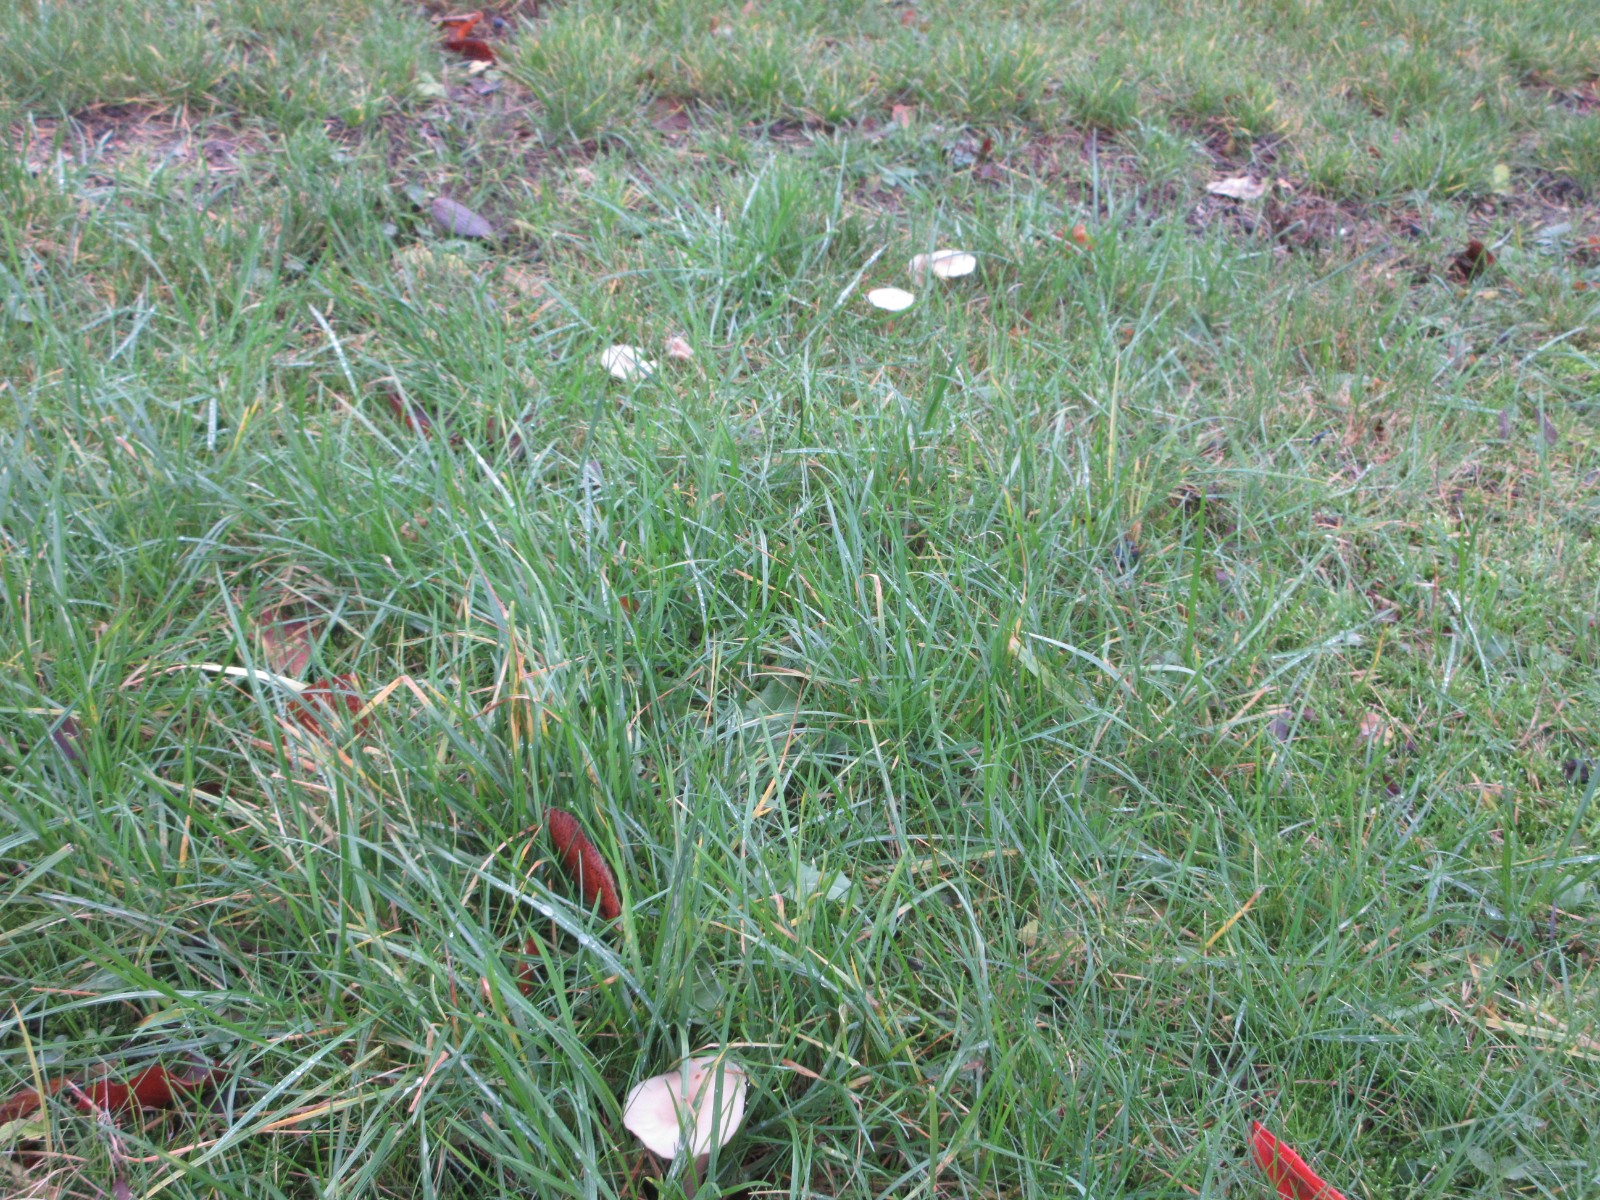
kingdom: Fungi
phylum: Basidiomycota
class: Agaricomycetes
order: Agaricales
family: Tricholomataceae
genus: Clitocybe
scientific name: Clitocybe fragrans
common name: vellugtende tragthat
